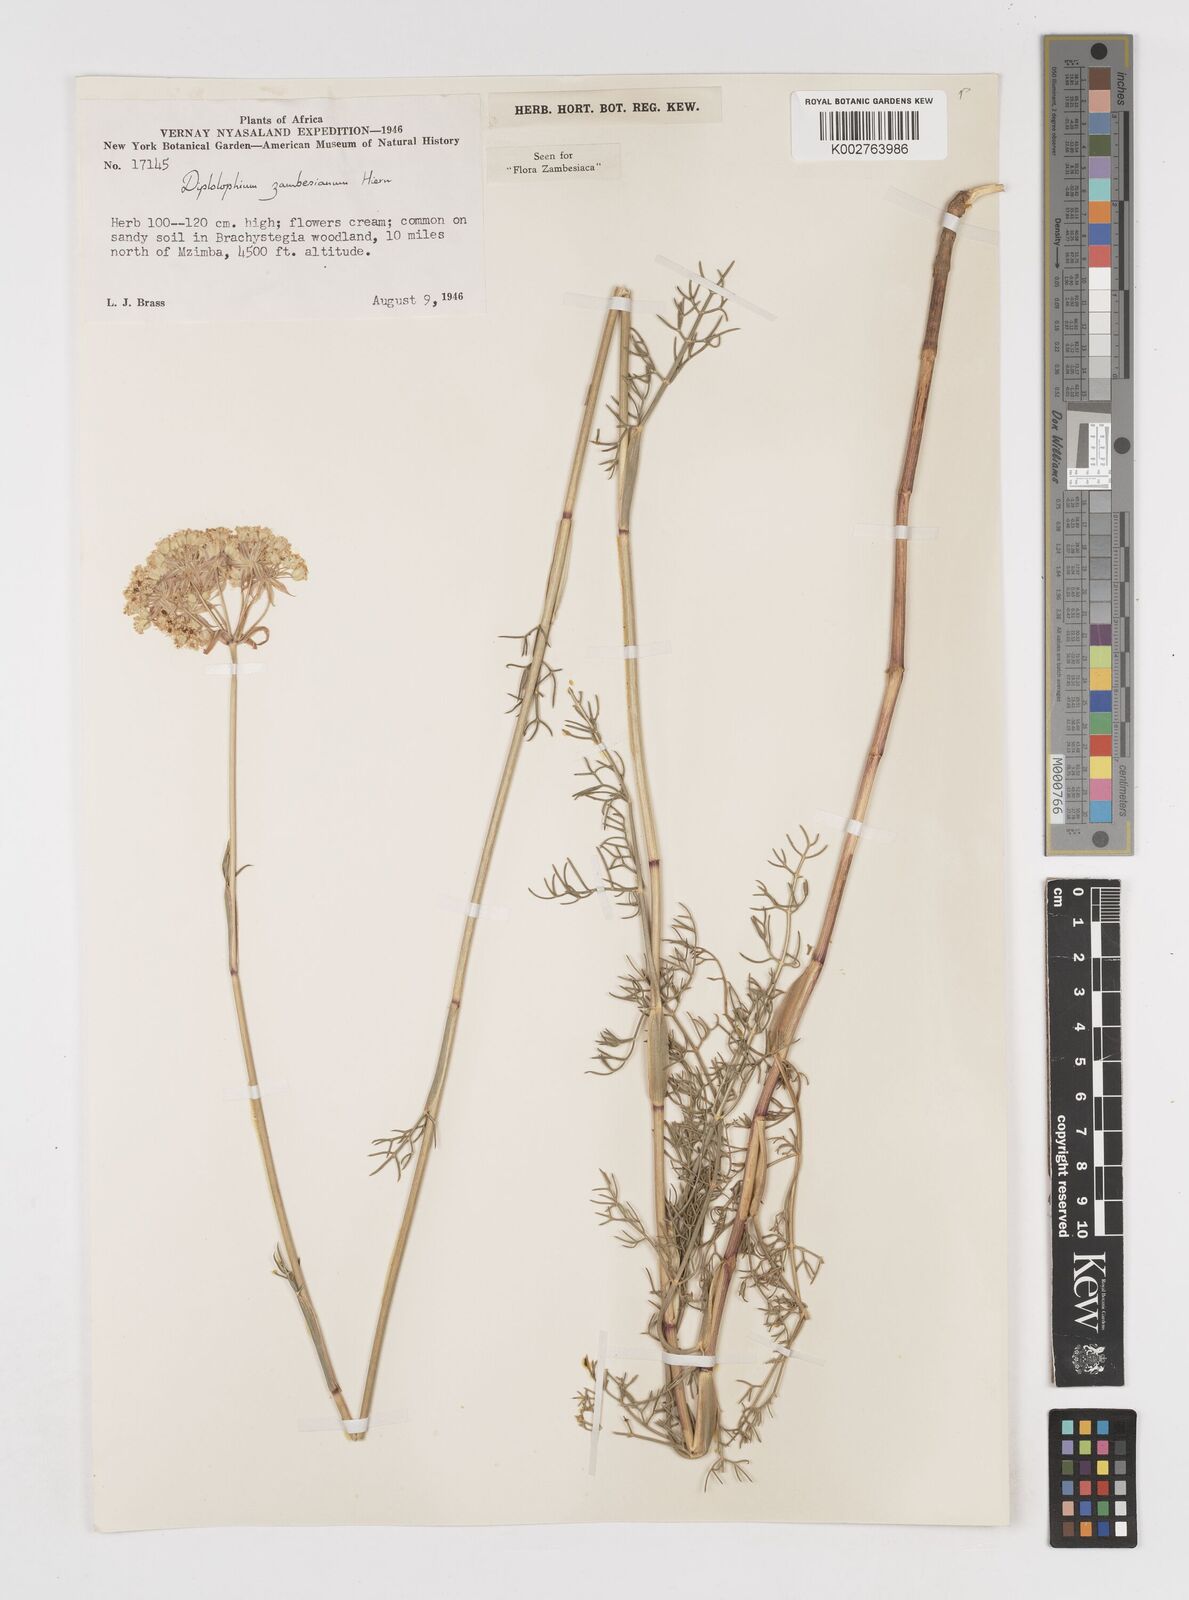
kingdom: Plantae
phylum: Tracheophyta
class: Magnoliopsida
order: Apiales
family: Apiaceae
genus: Diplolophium
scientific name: Diplolophium zambesianum
